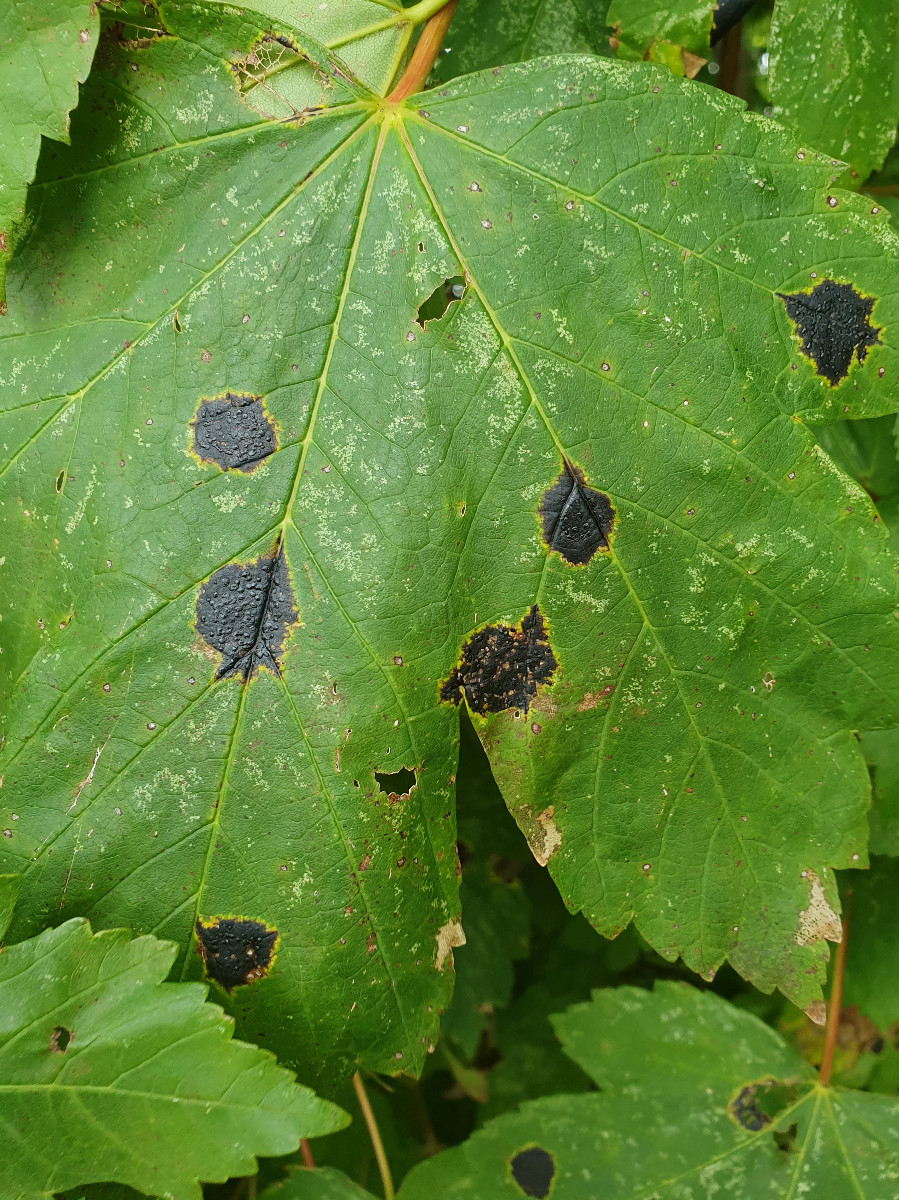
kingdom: Fungi
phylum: Ascomycota
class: Leotiomycetes
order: Rhytismatales
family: Rhytismataceae
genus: Rhytisma
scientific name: Rhytisma acerinum
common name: ahorn-rynkeplet
